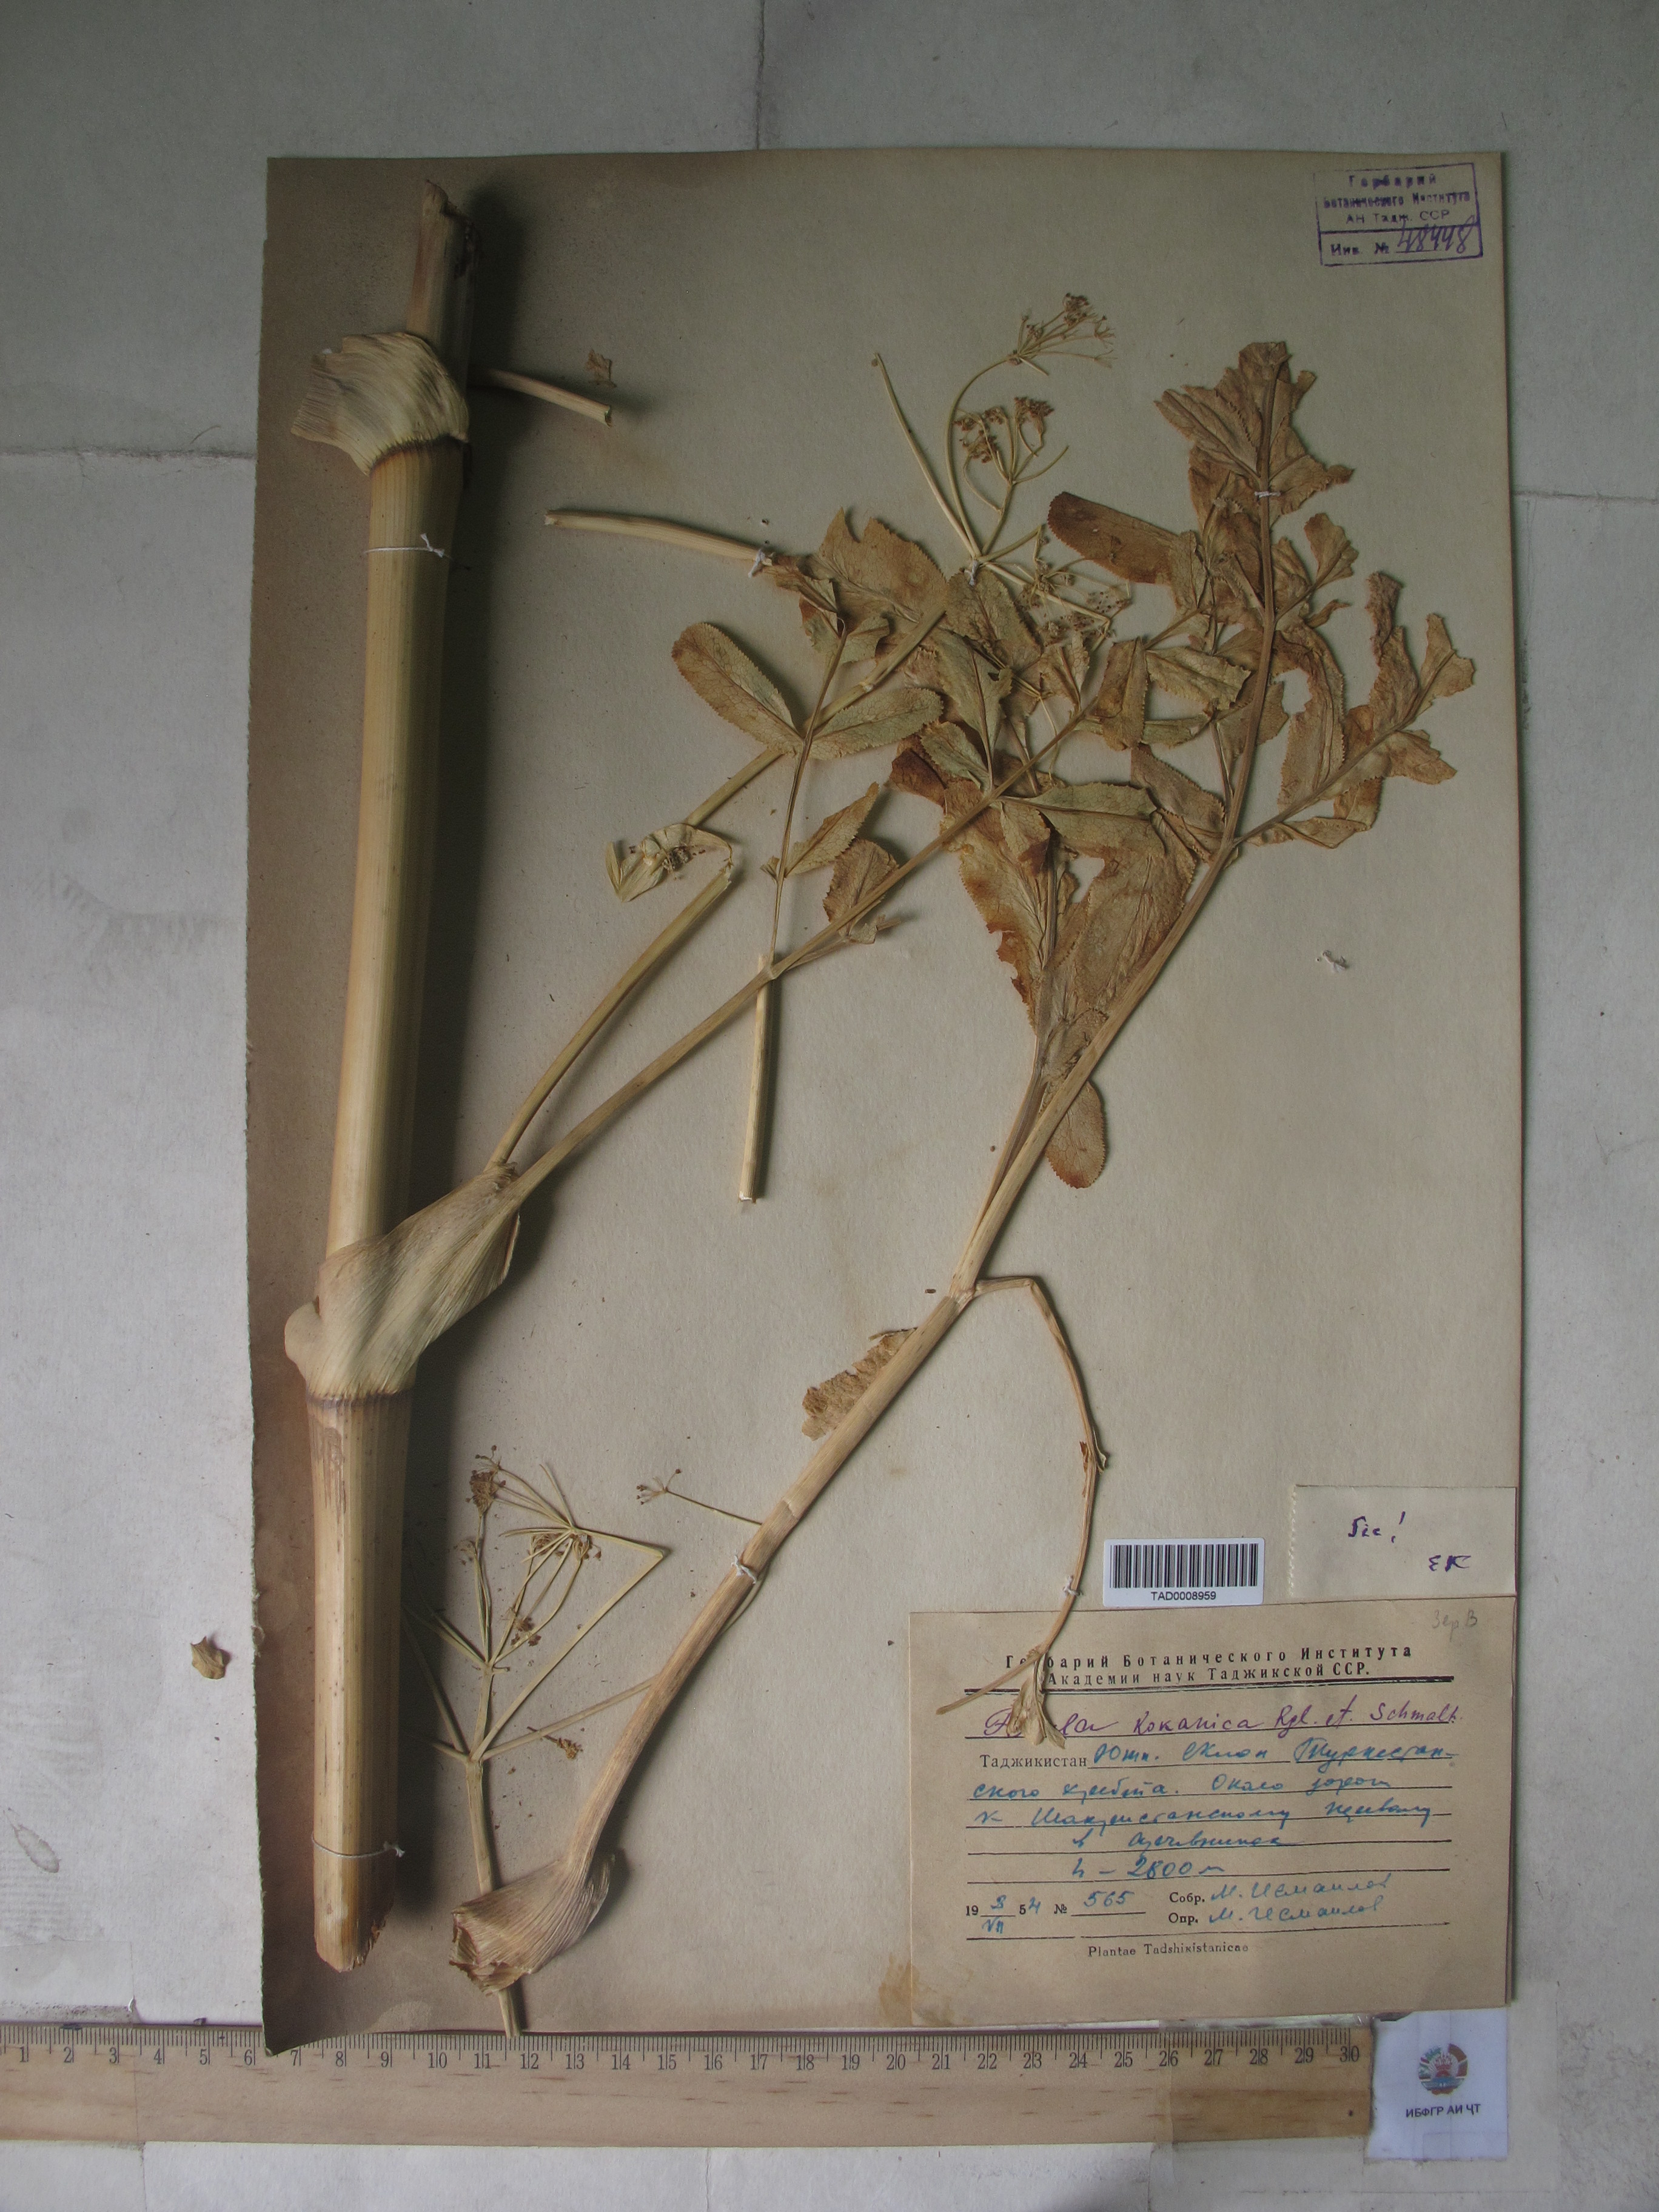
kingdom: Plantae
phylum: Tracheophyta
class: Magnoliopsida
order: Apiales
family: Apiaceae
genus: Ferula
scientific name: Ferula kokanica
